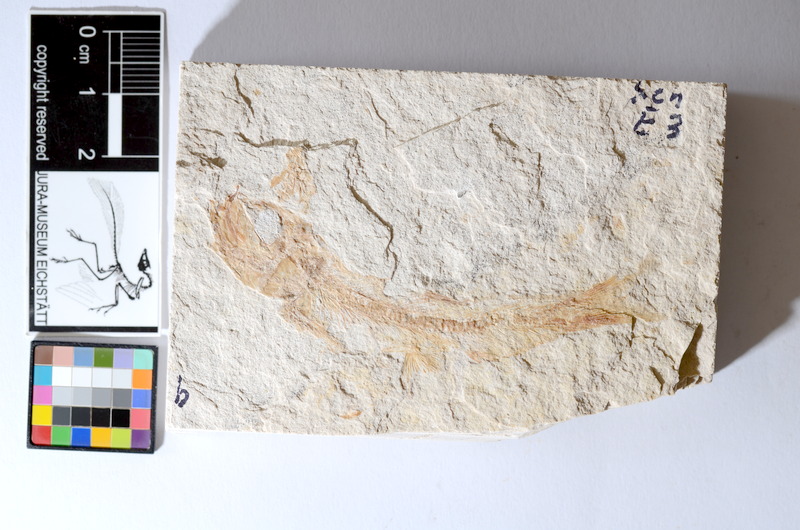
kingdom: Animalia
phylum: Chordata
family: Ascalaboidae
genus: Tharsis
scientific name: Tharsis dubius
